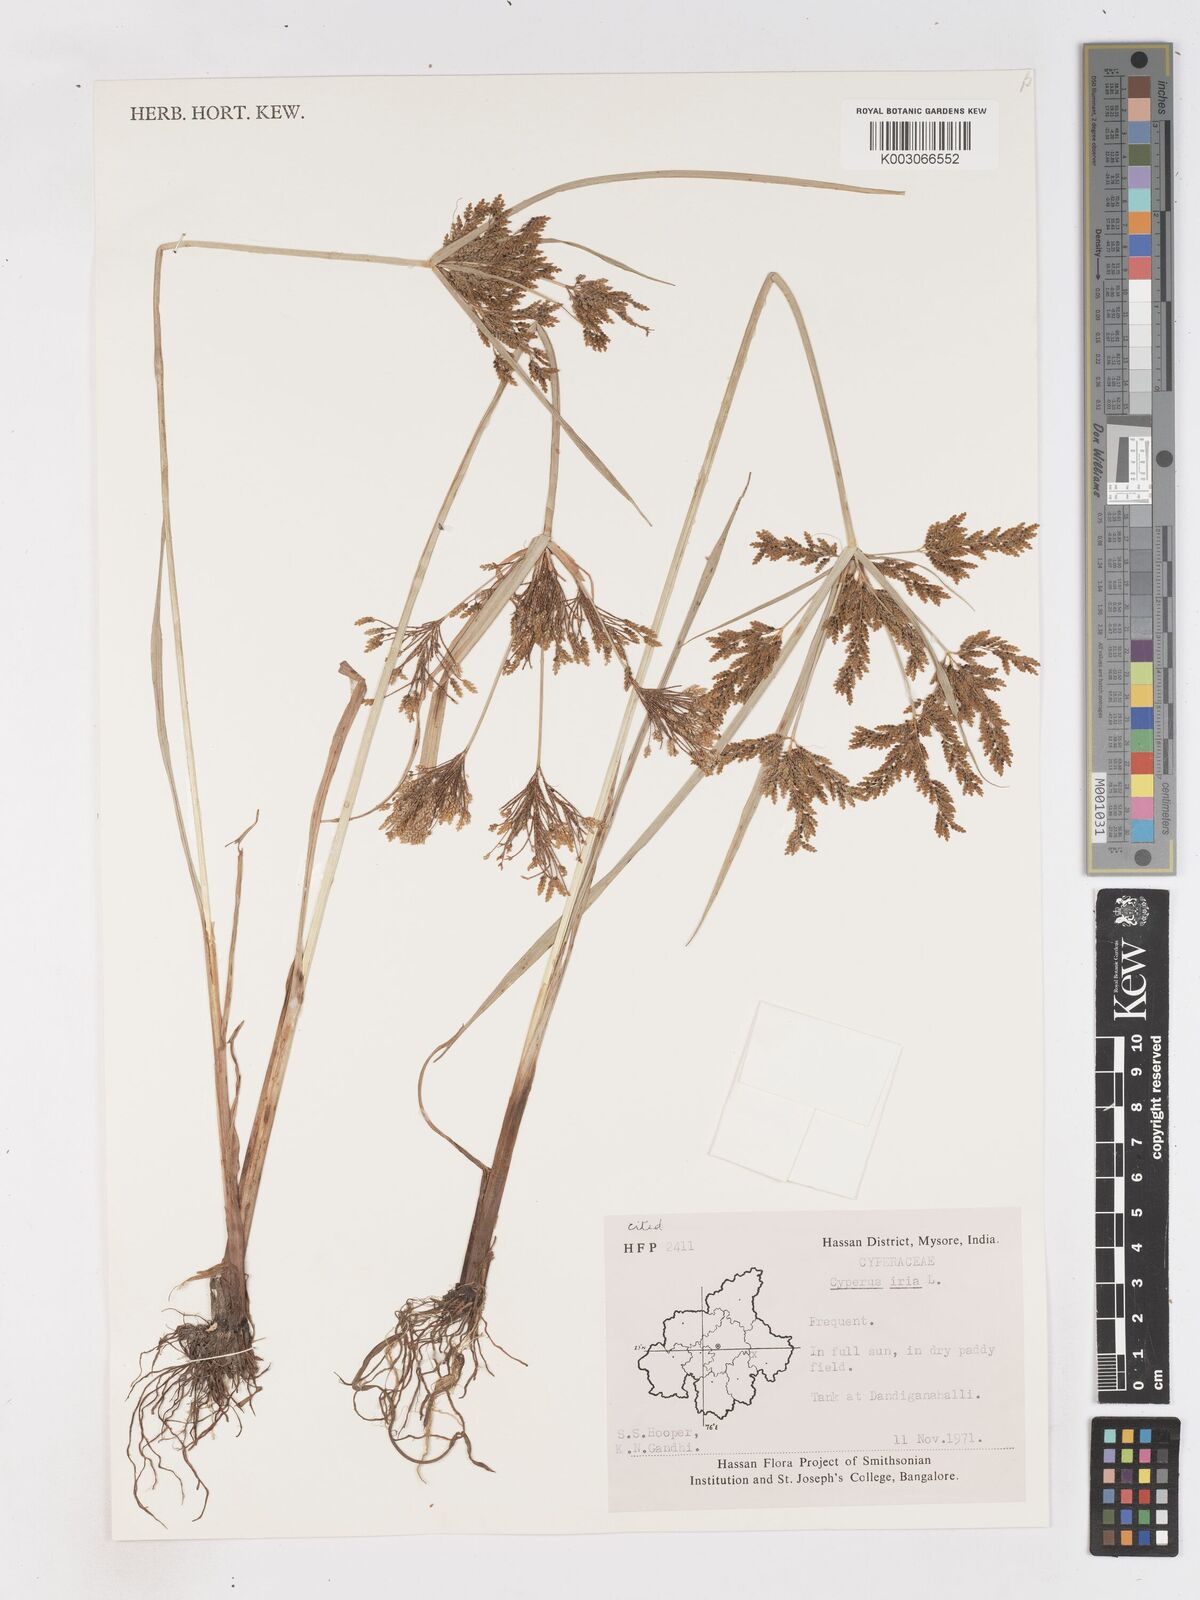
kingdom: Plantae
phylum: Tracheophyta
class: Liliopsida
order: Poales
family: Cyperaceae
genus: Cyperus
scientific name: Cyperus iria
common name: Ricefield flatsedge
